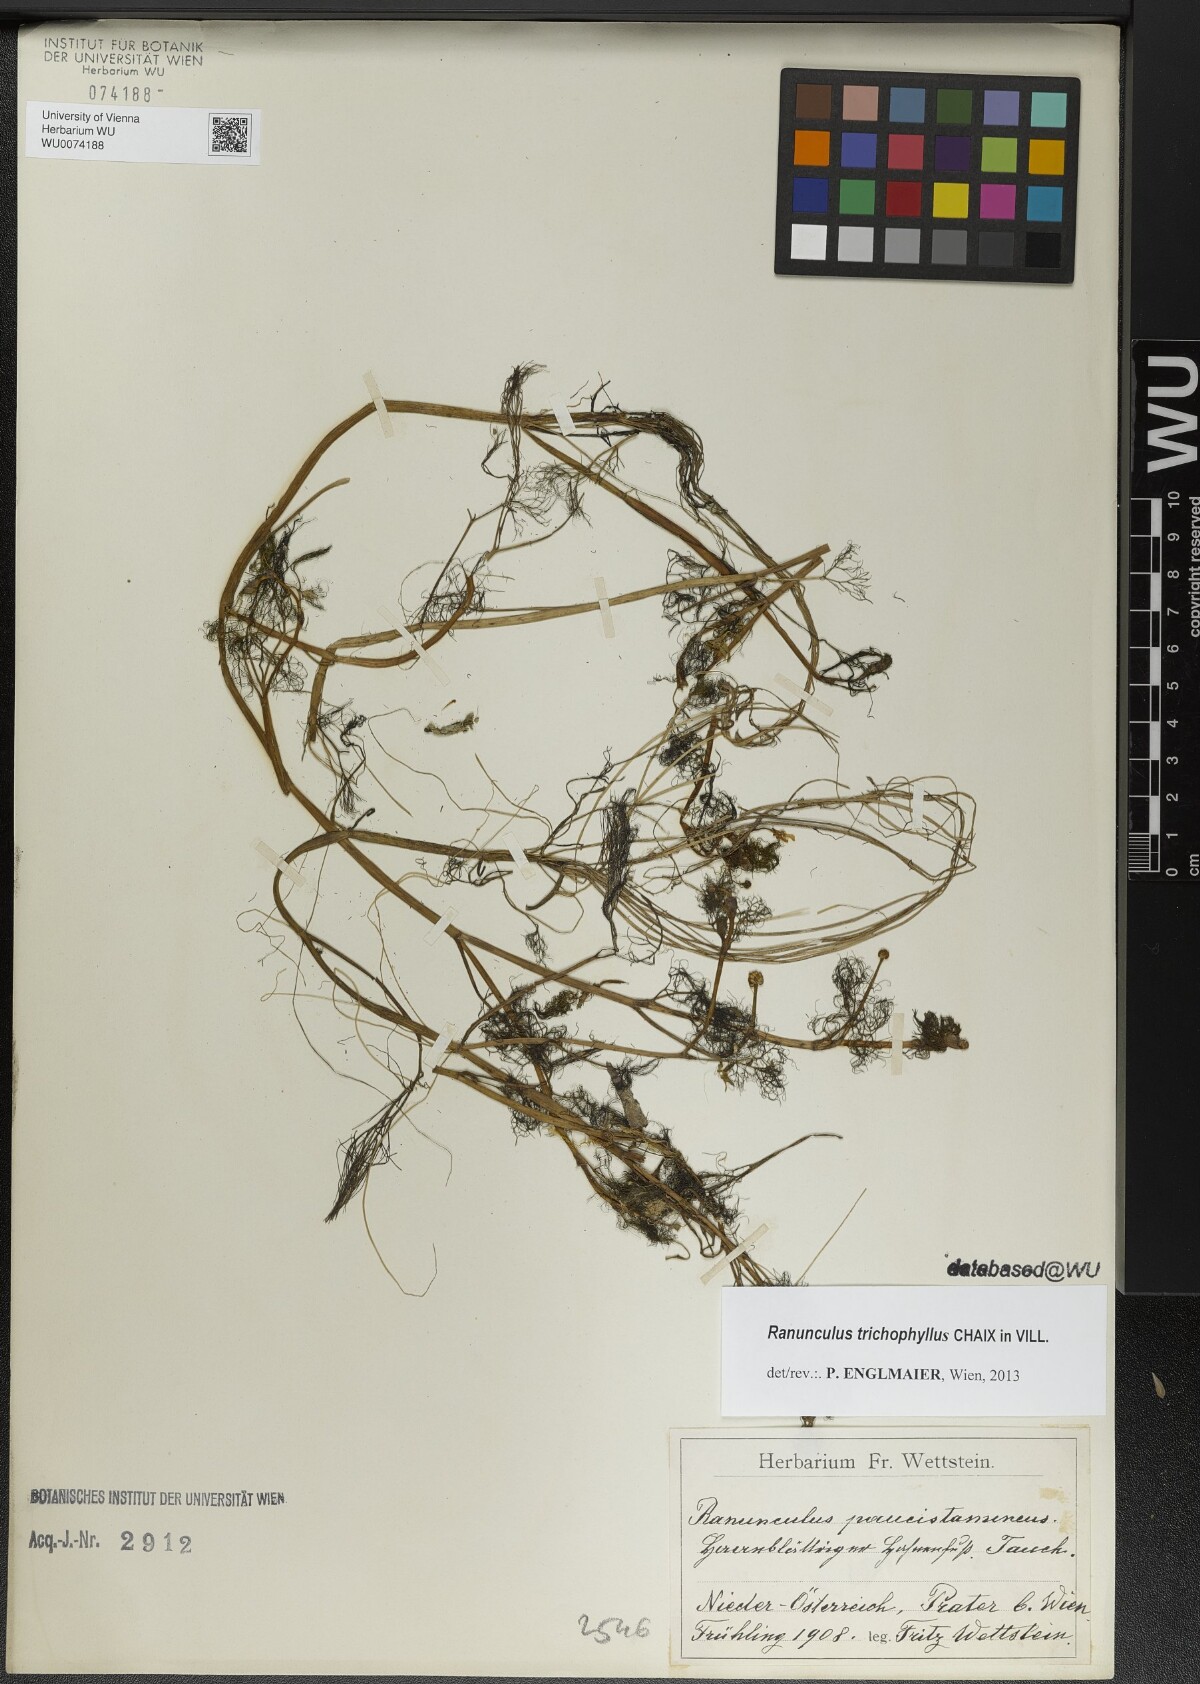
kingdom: Plantae
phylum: Tracheophyta
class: Magnoliopsida
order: Ranunculales
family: Ranunculaceae
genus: Ranunculus
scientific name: Ranunculus trichophyllus
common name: Thread-leaved water-crowfoot
